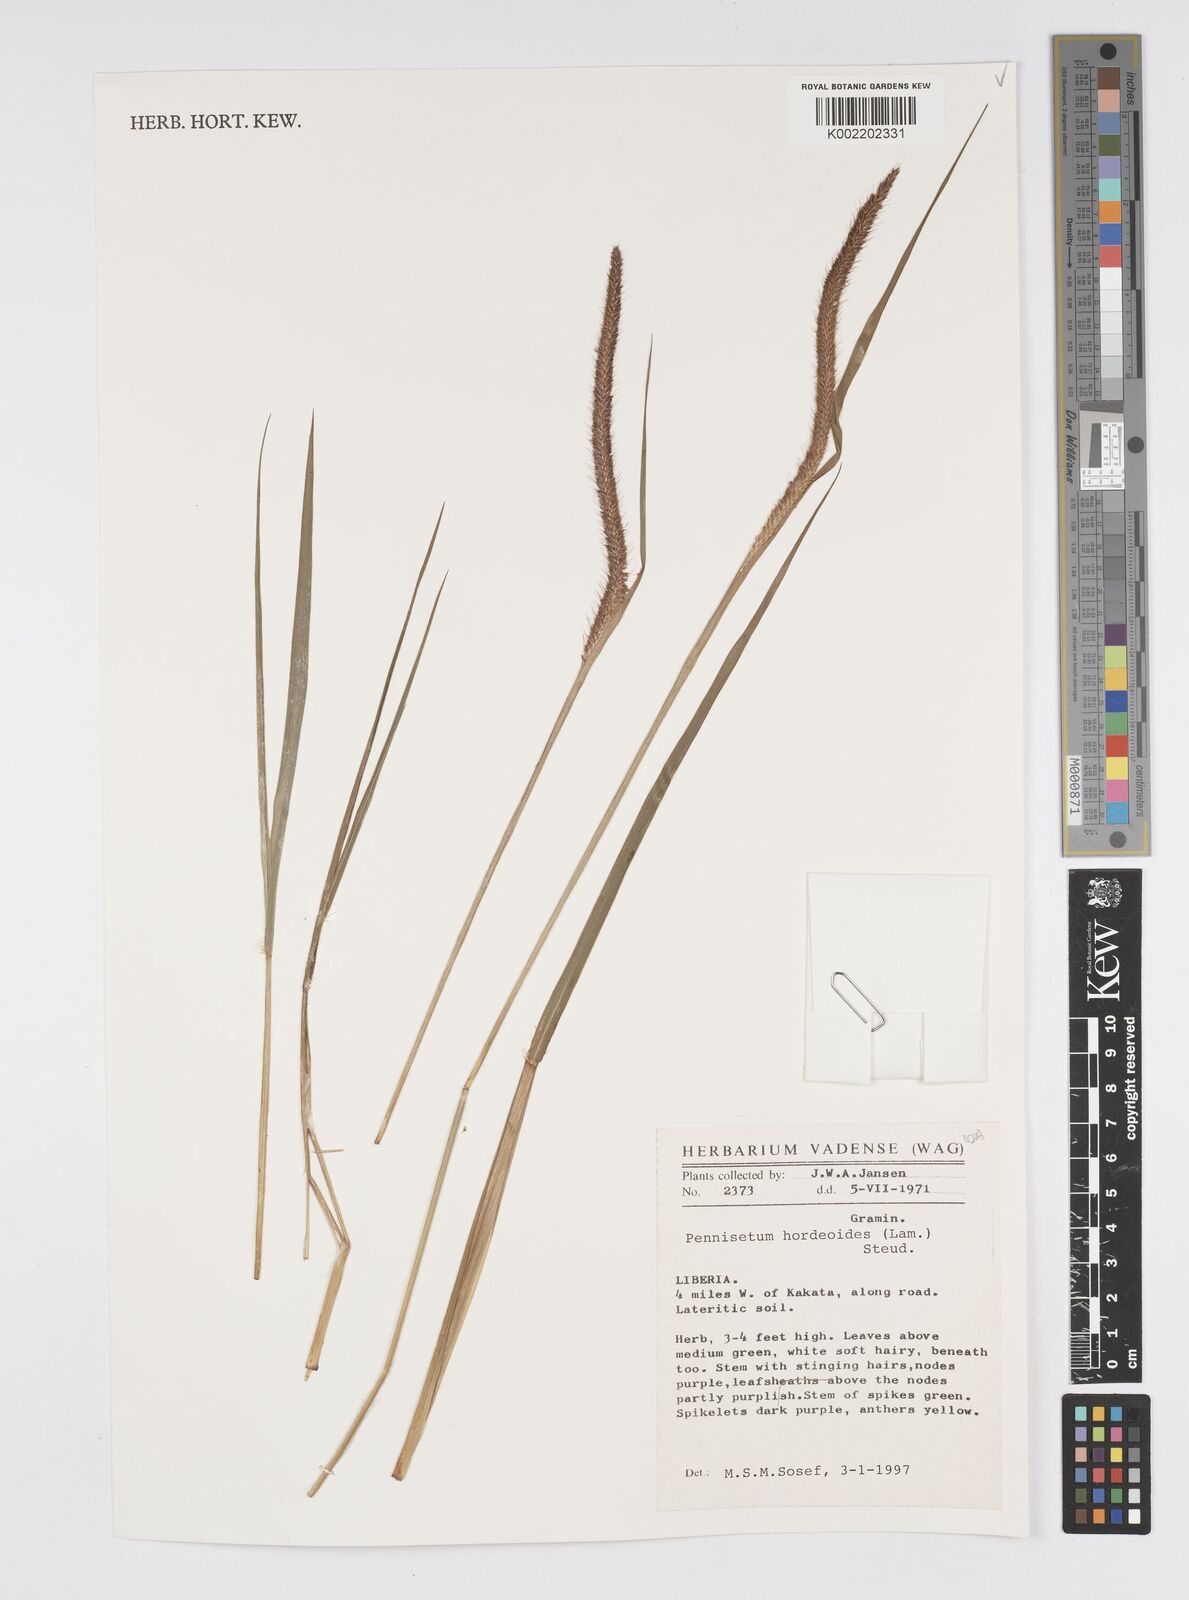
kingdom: Plantae
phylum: Tracheophyta
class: Liliopsida
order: Poales
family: Poaceae
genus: Cenchrus
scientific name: Cenchrus hordeoides
